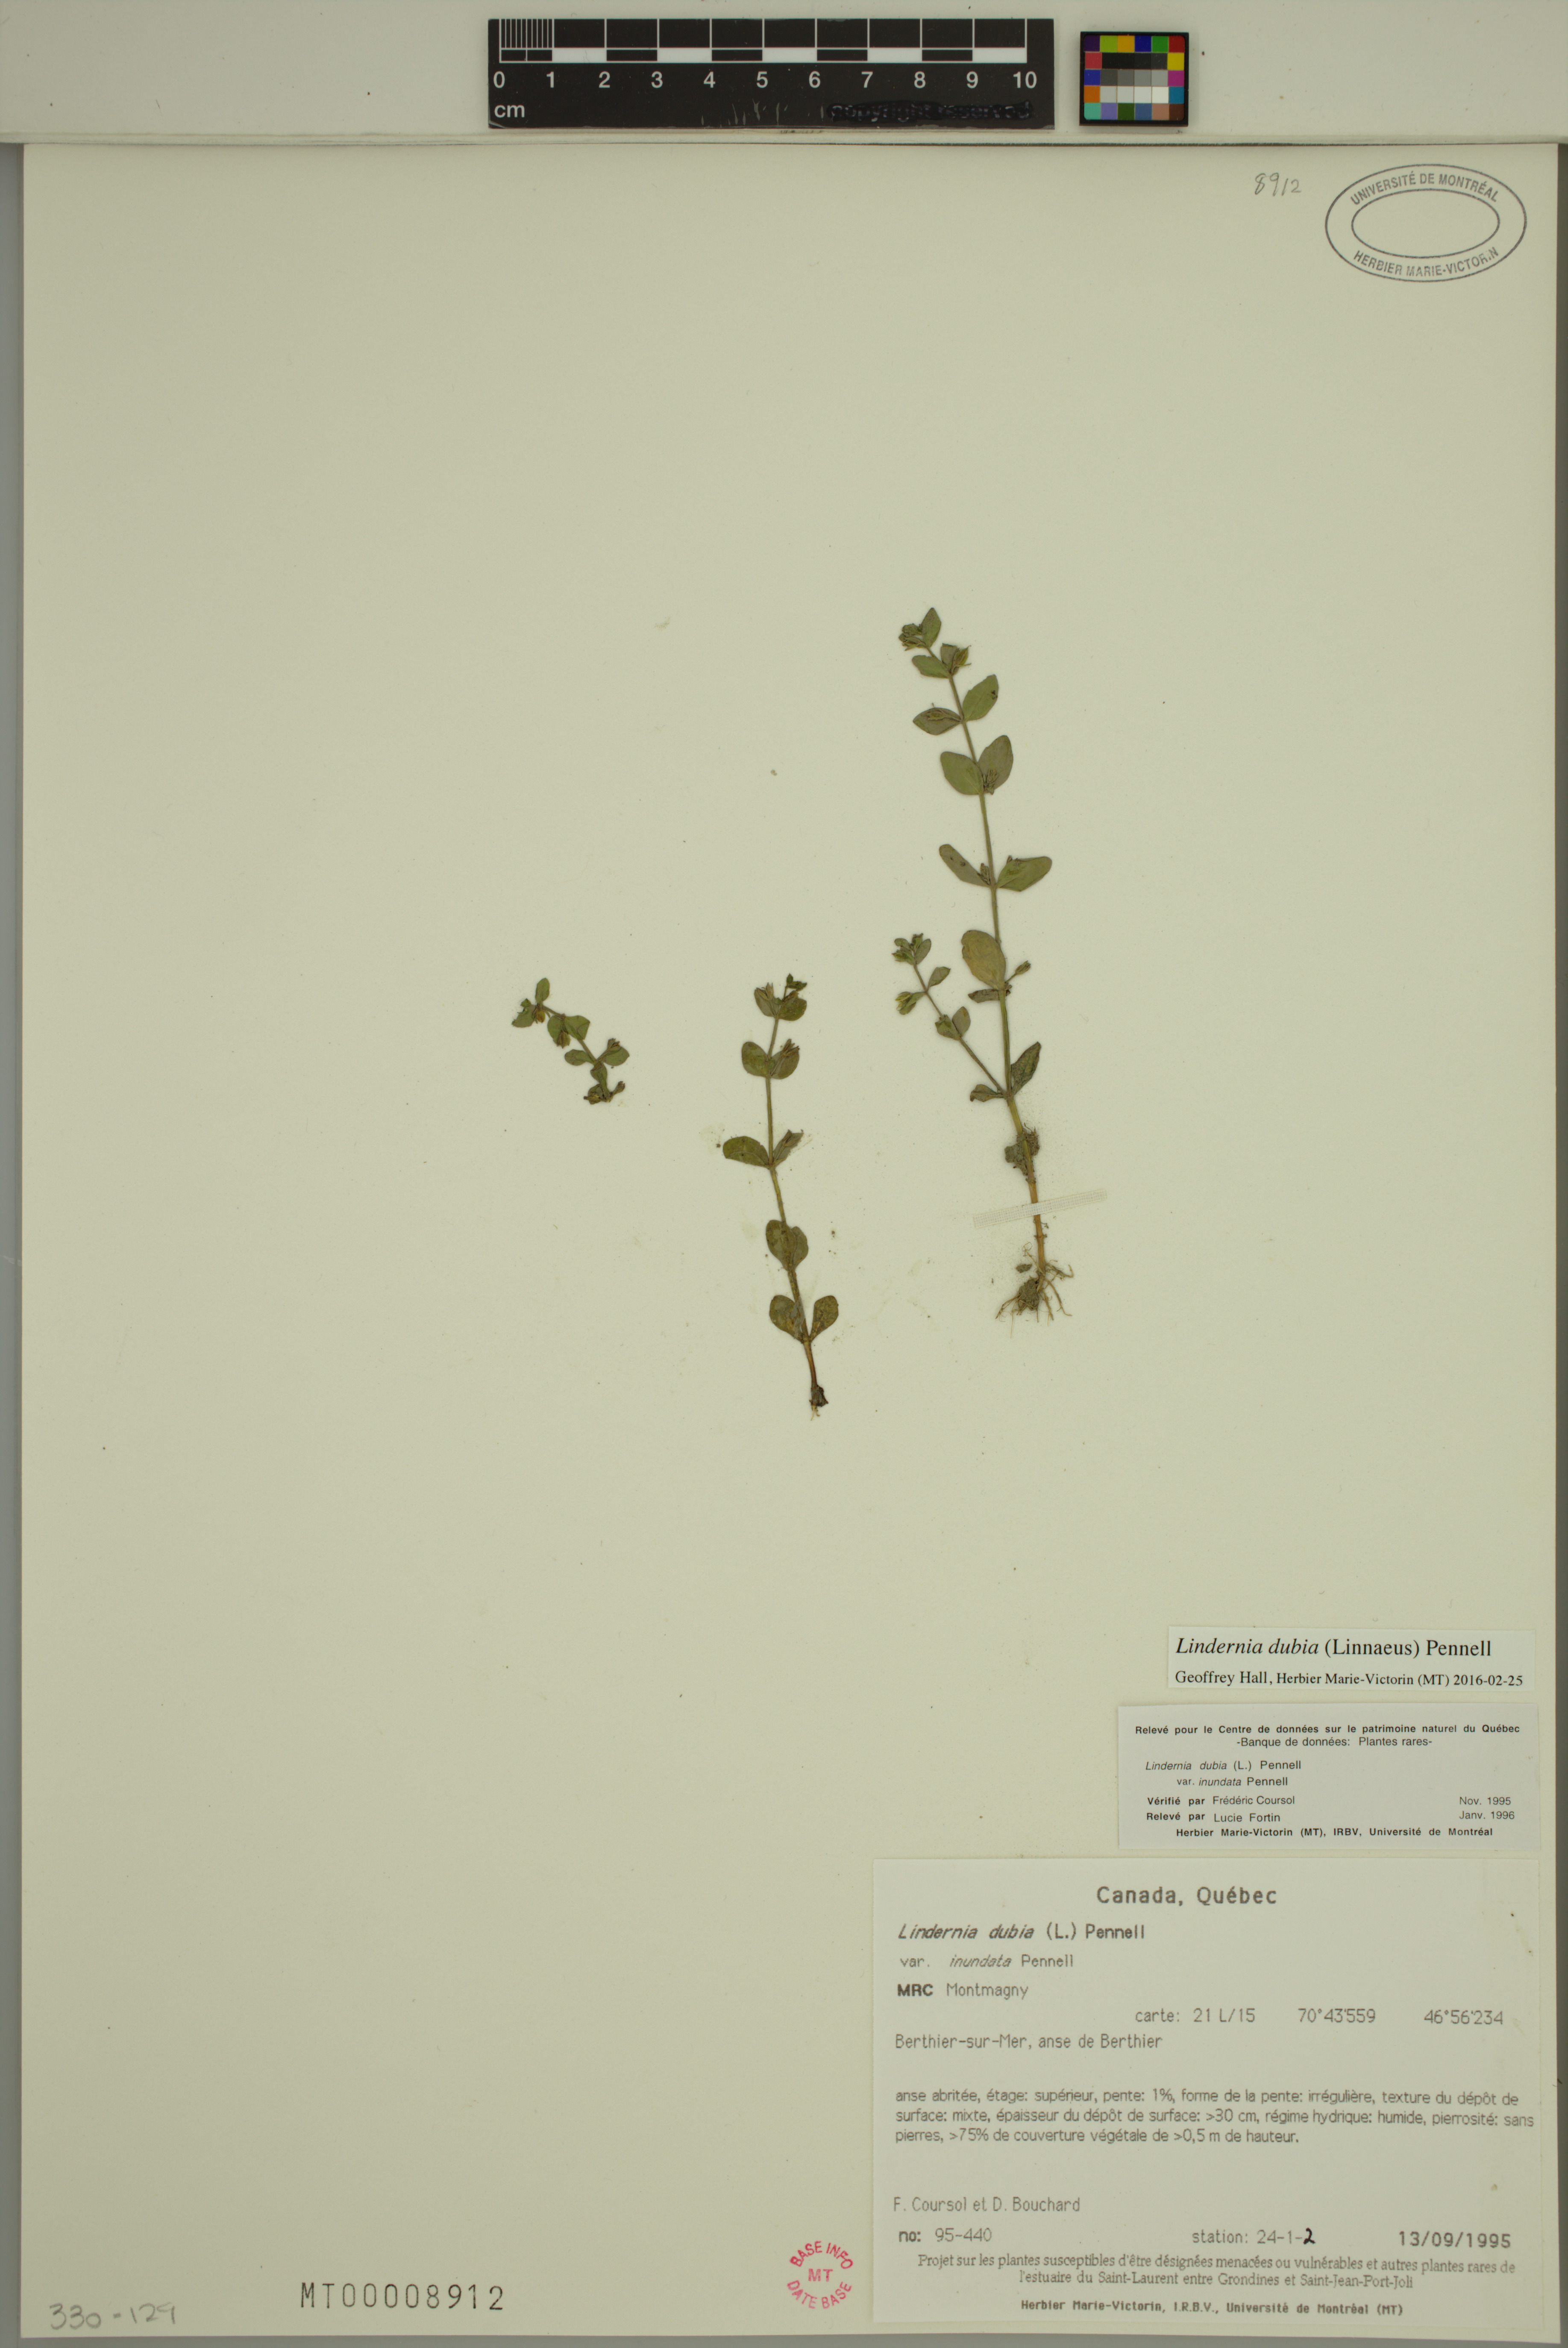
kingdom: Plantae
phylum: Tracheophyta
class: Magnoliopsida
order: Lamiales
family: Linderniaceae
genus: Lindernia
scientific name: Lindernia dubia
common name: Annual false pimpernel
